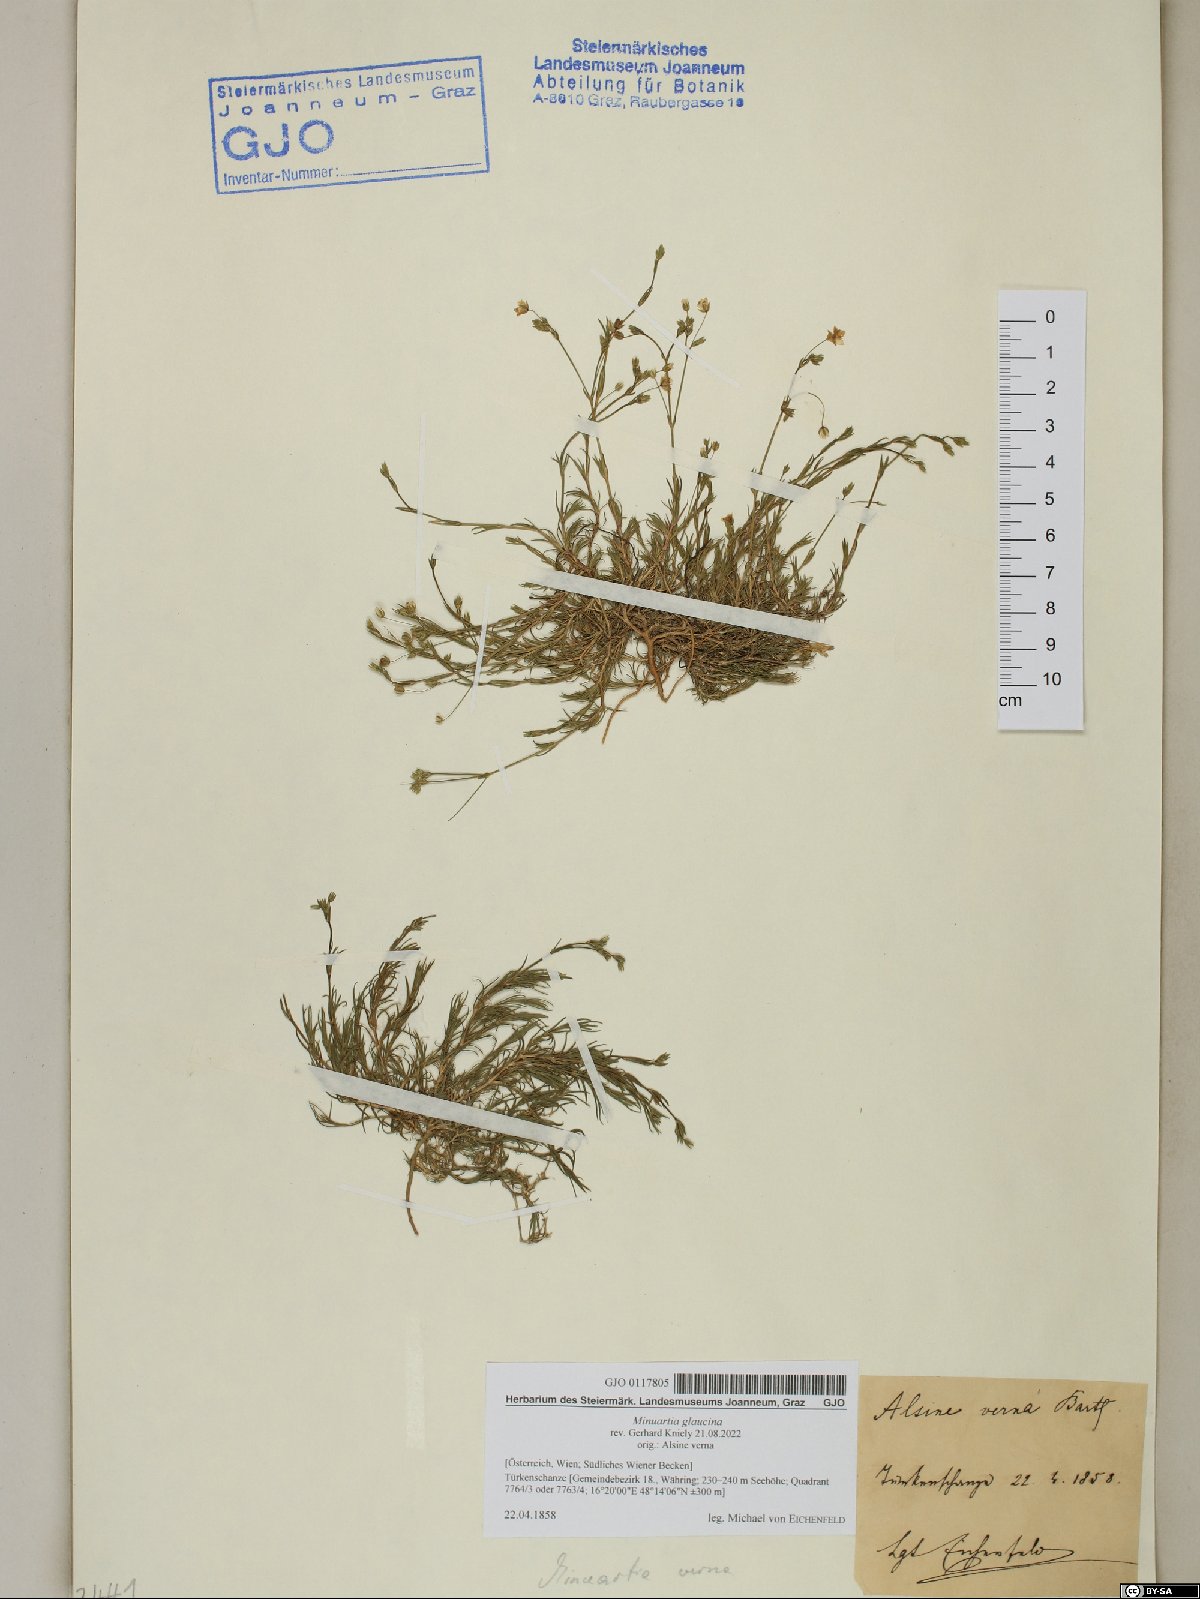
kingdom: Plantae
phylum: Tracheophyta
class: Magnoliopsida
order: Caryophyllales
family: Caryophyllaceae
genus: Sabulina
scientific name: Sabulina glaucina
